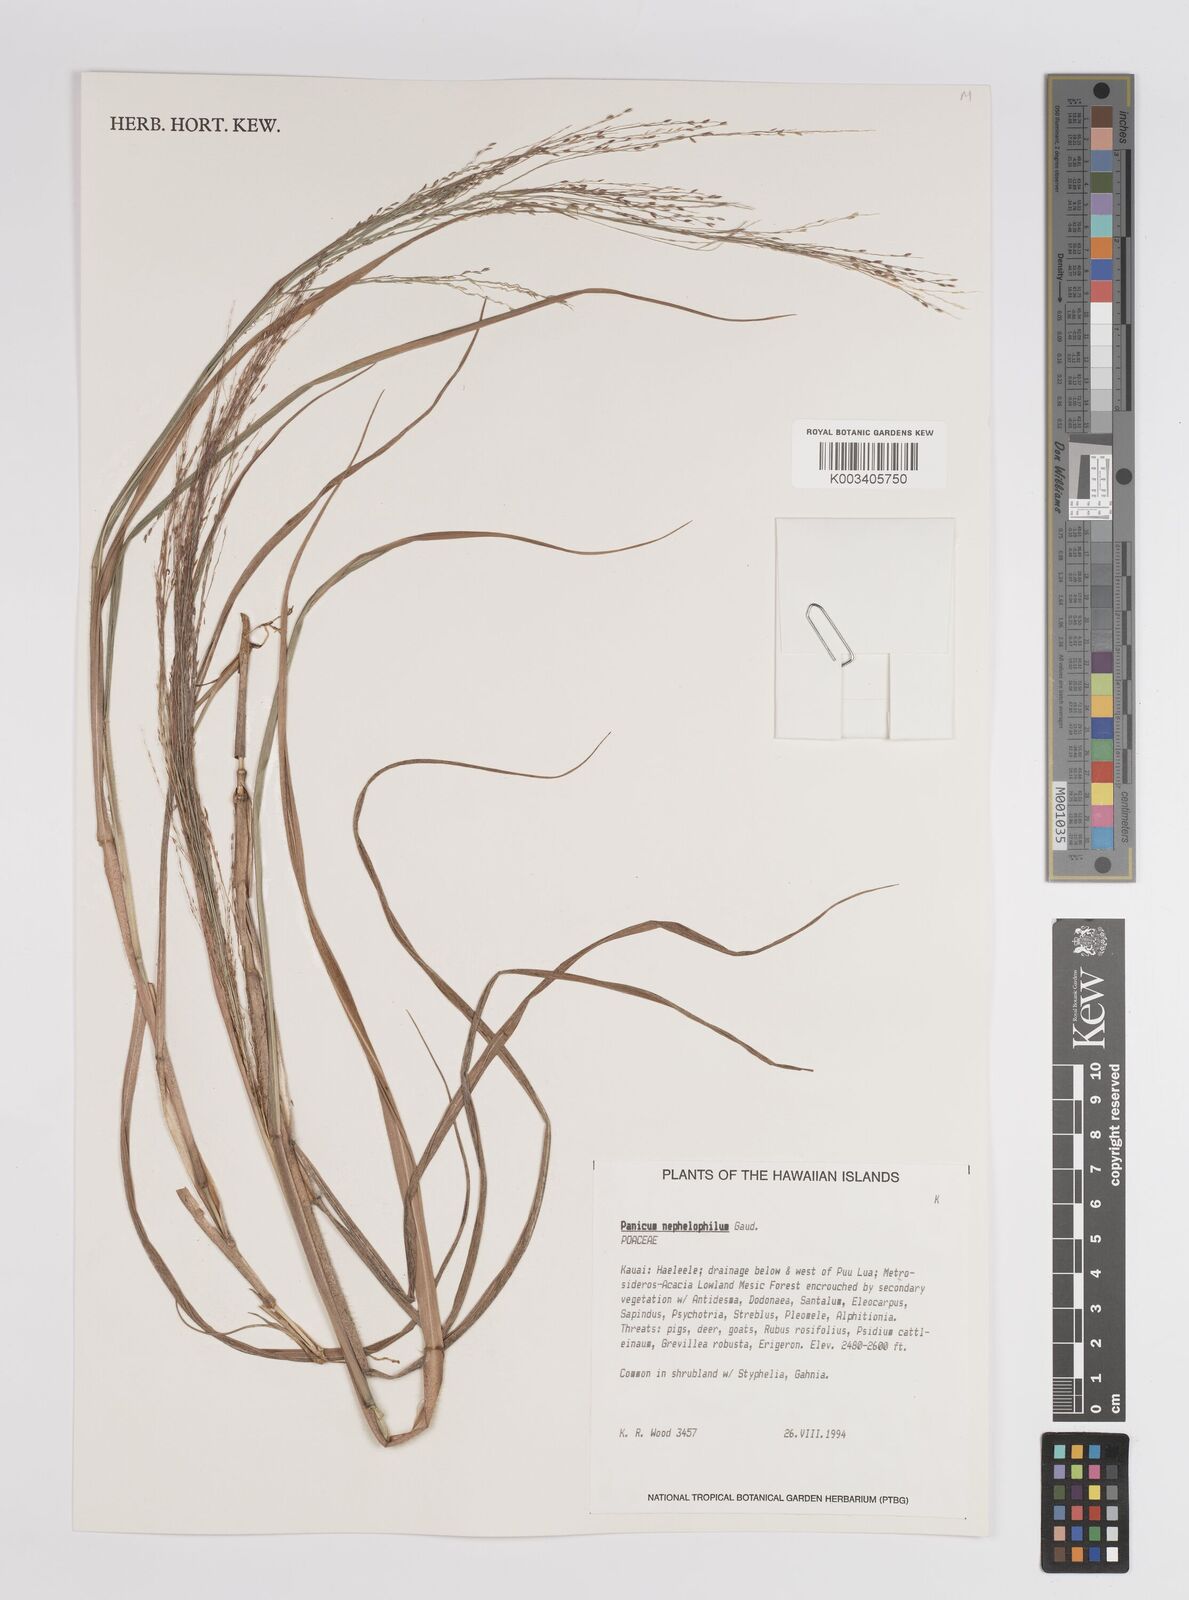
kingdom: Plantae
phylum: Tracheophyta
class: Liliopsida
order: Poales
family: Poaceae
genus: Panicum
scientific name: Panicum nephelophilum
